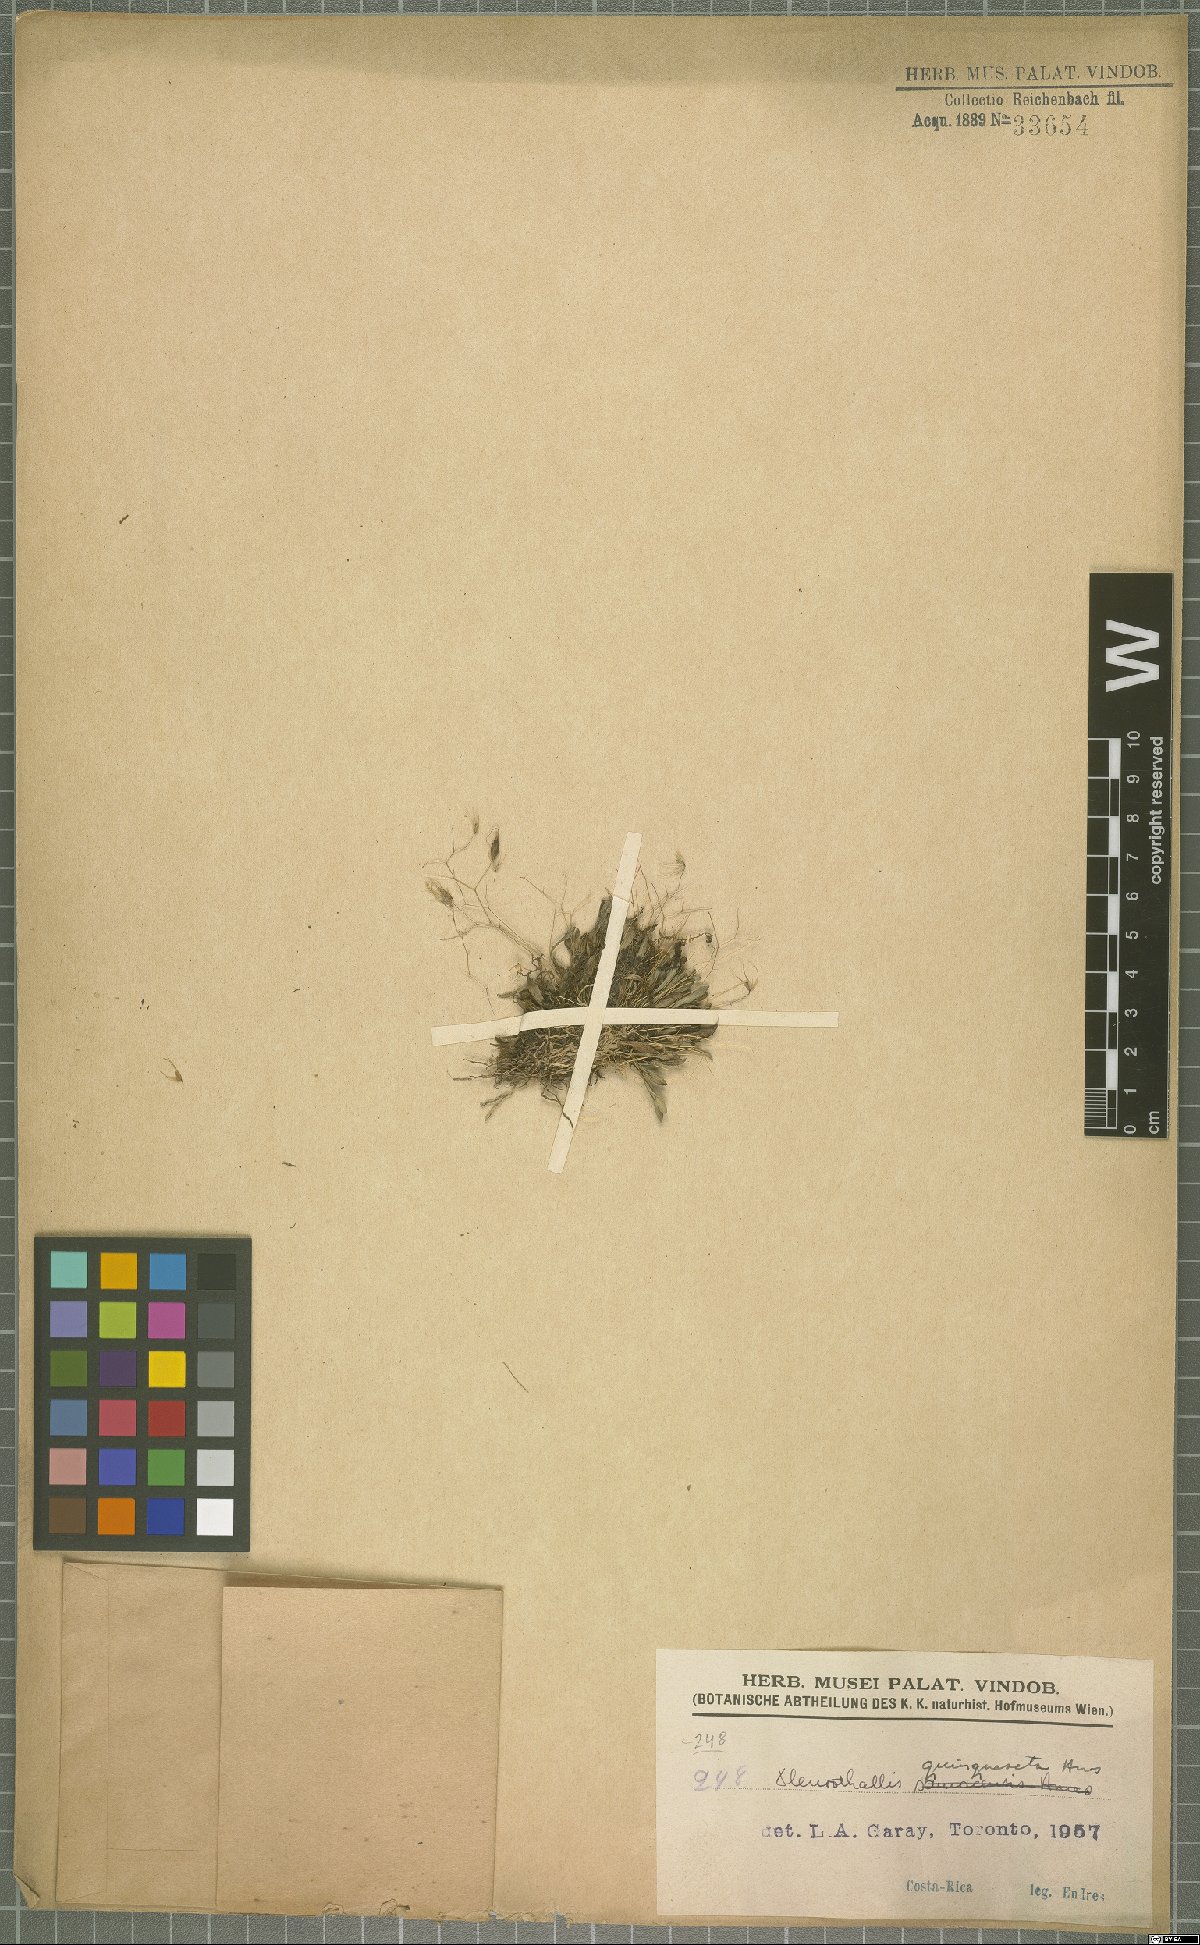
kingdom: Plantae
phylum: Tracheophyta
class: Liliopsida
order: Asparagales
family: Orchidaceae
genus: Muscarella
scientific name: Muscarella quinqueseta
